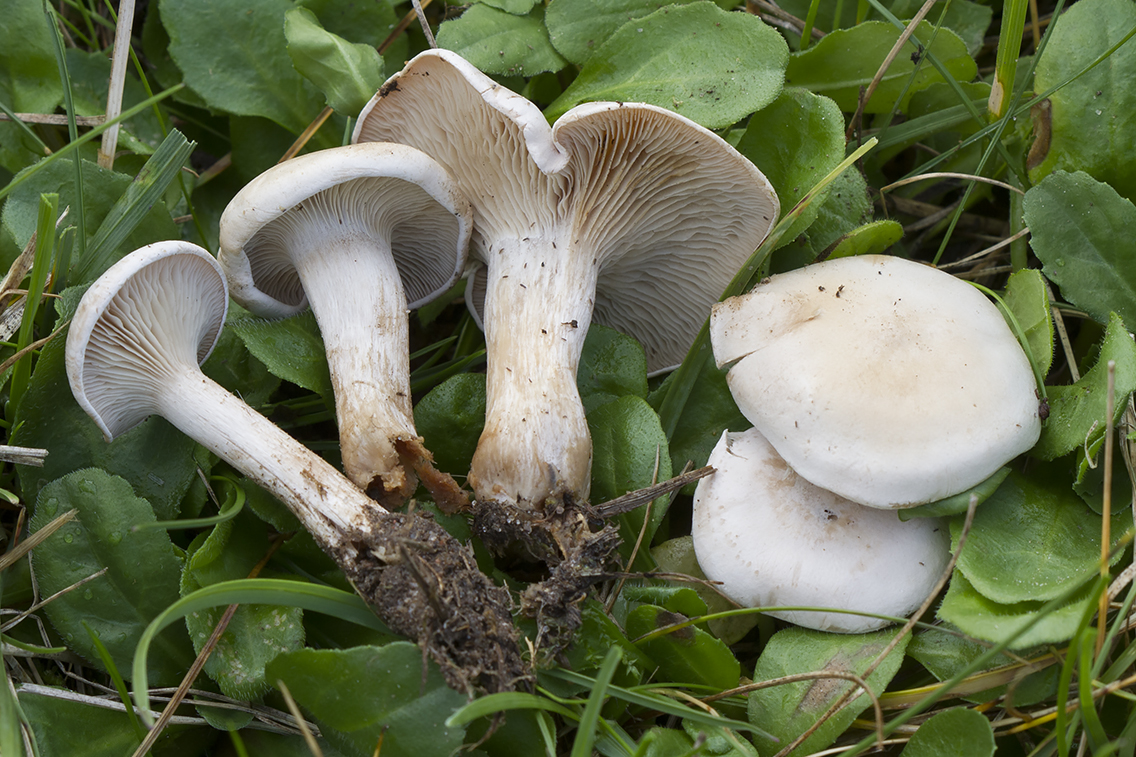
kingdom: Fungi
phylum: Basidiomycota
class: Agaricomycetes
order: Agaricales
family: Tricholomataceae
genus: Clitocybe
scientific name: Clitocybe rivulosa
